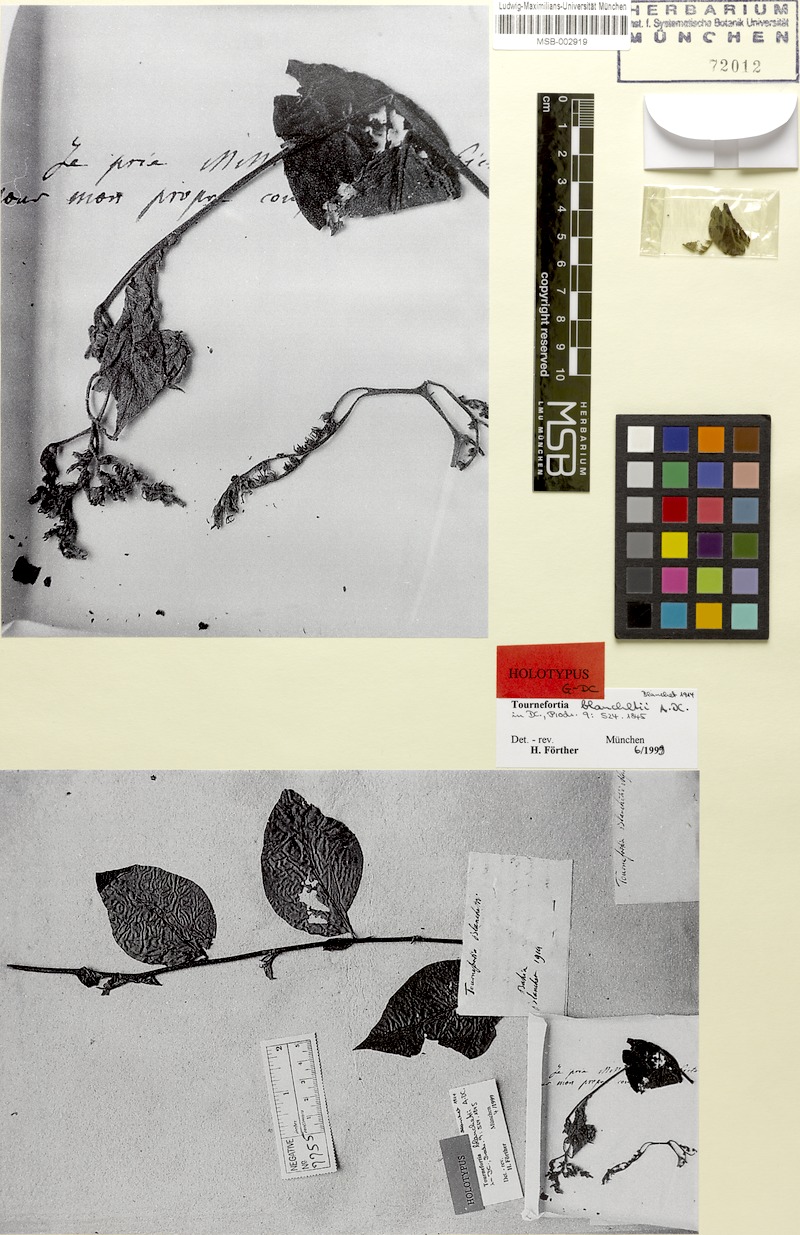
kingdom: Plantae
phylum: Tracheophyta
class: Magnoliopsida
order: Boraginales
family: Heliotropiaceae
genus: Myriopus
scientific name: Myriopus paniculatus
